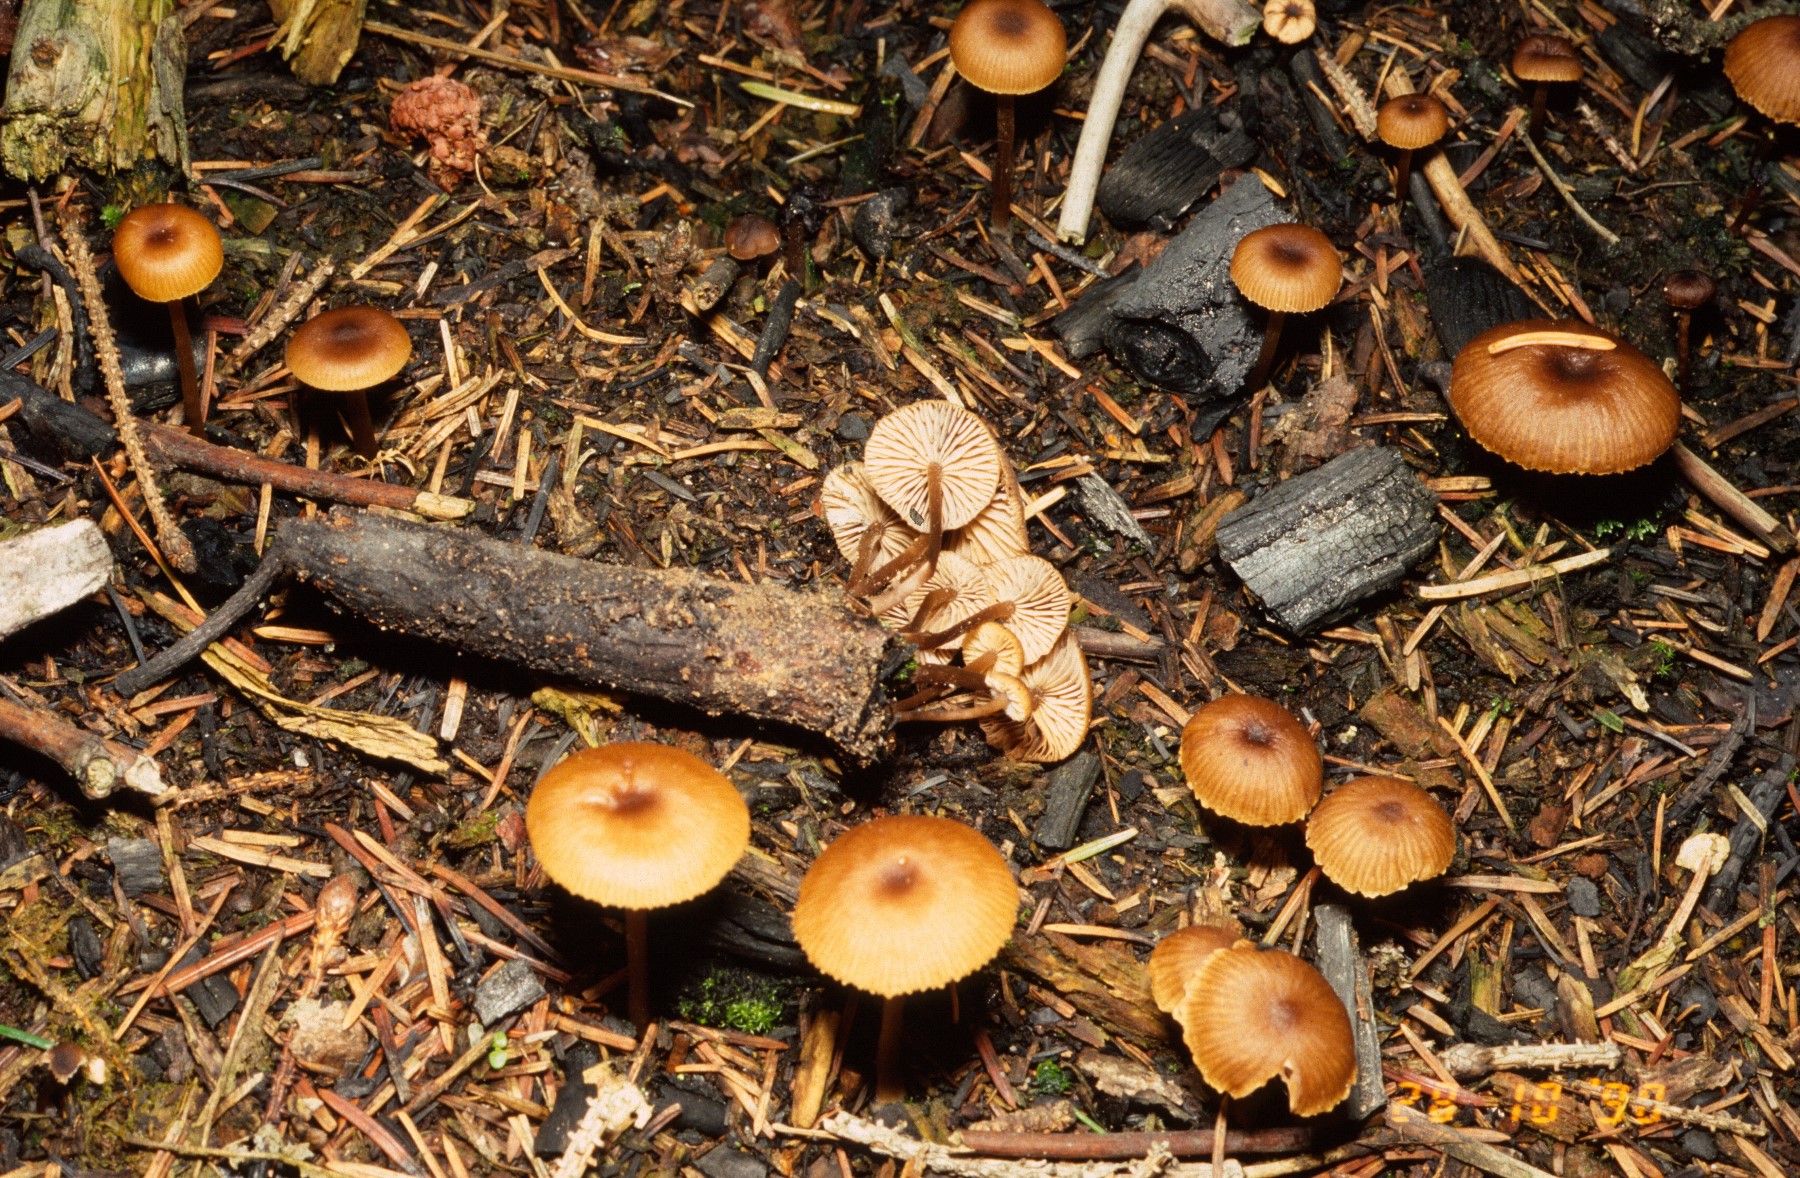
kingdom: Fungi
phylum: Basidiomycota
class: Agaricomycetes
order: Agaricales
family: Lyophyllaceae
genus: Tephrocybe
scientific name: Tephrocybe ambusta
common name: kul-gråblad
